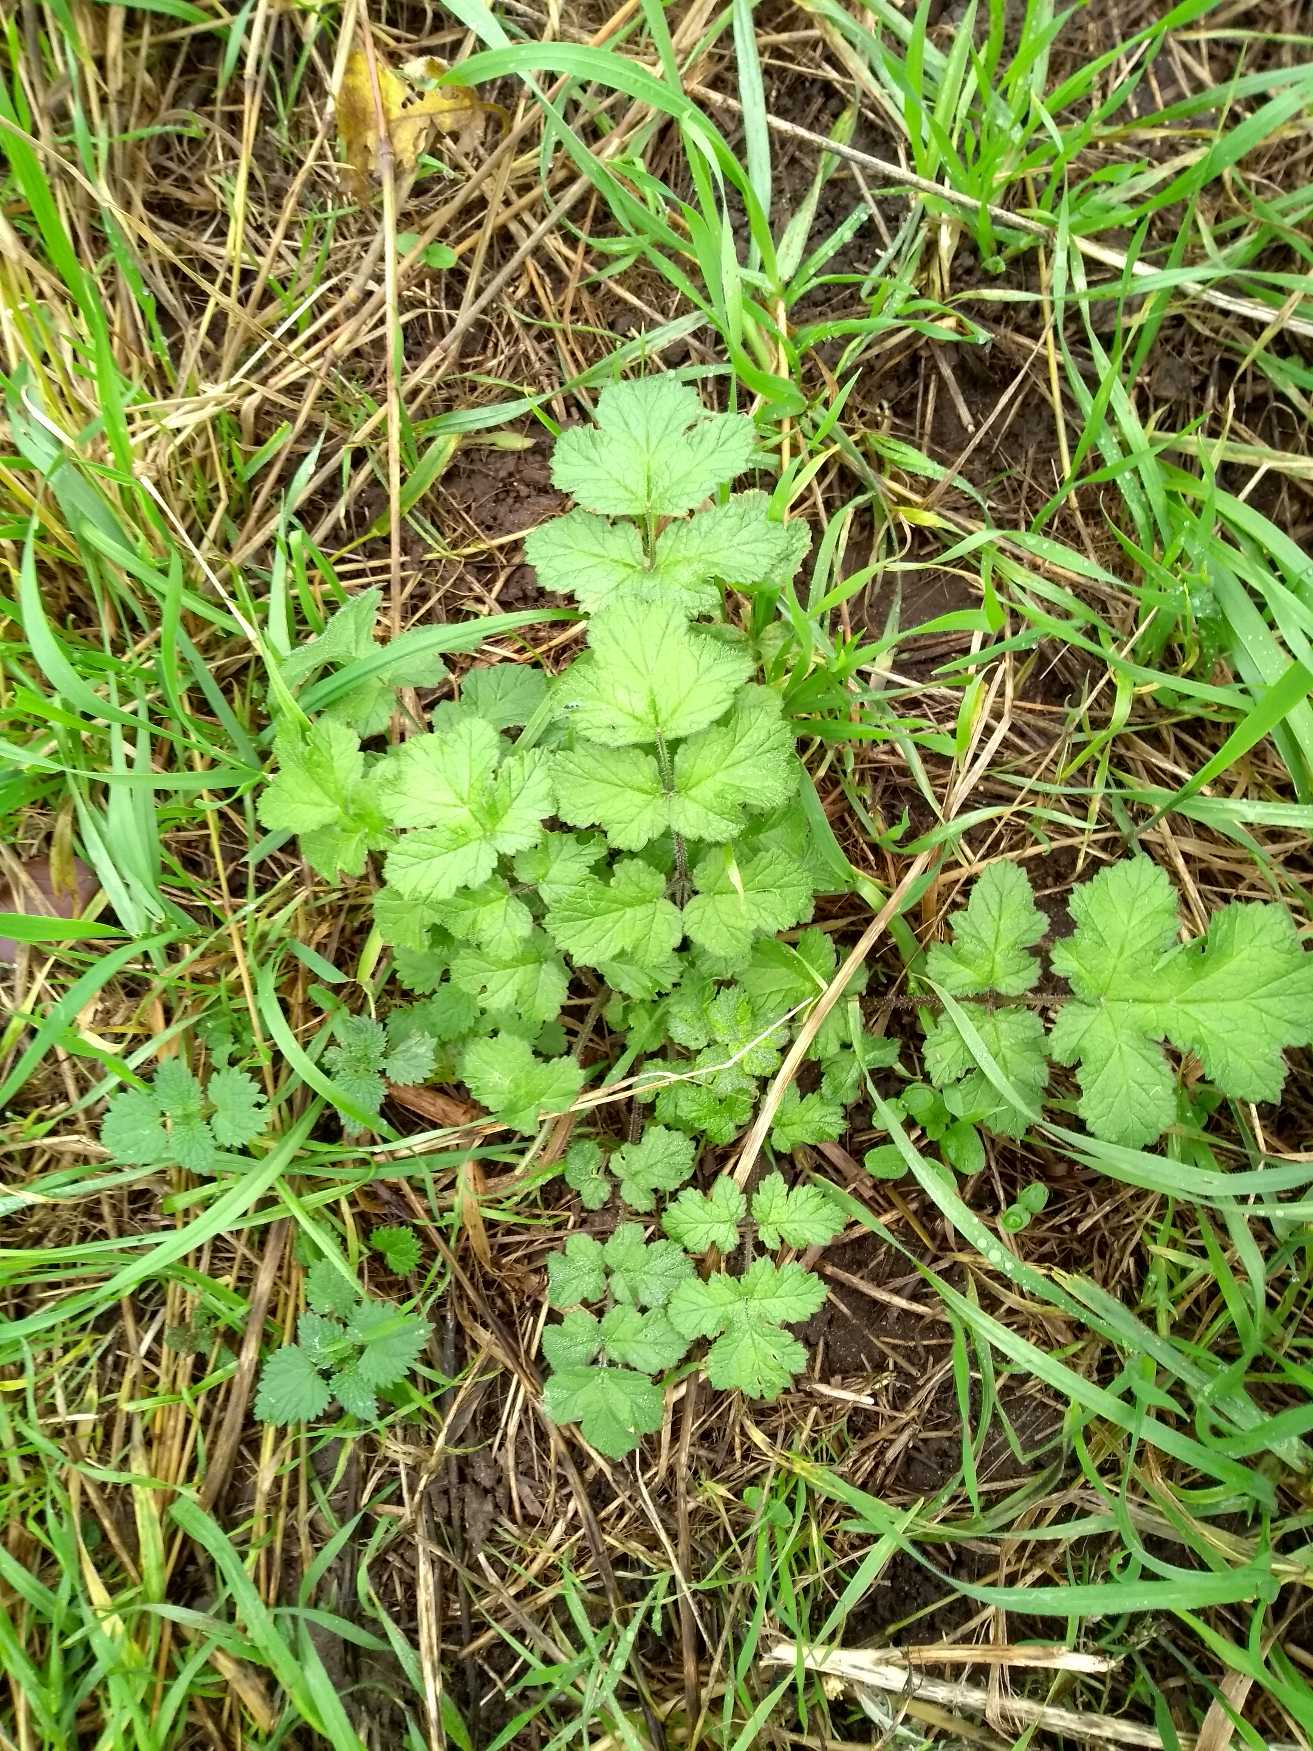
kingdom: Plantae
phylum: Tracheophyta
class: Magnoliopsida
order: Rosales
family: Rosaceae
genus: Geum
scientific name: Geum urbanum
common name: Feber-nellikerod
